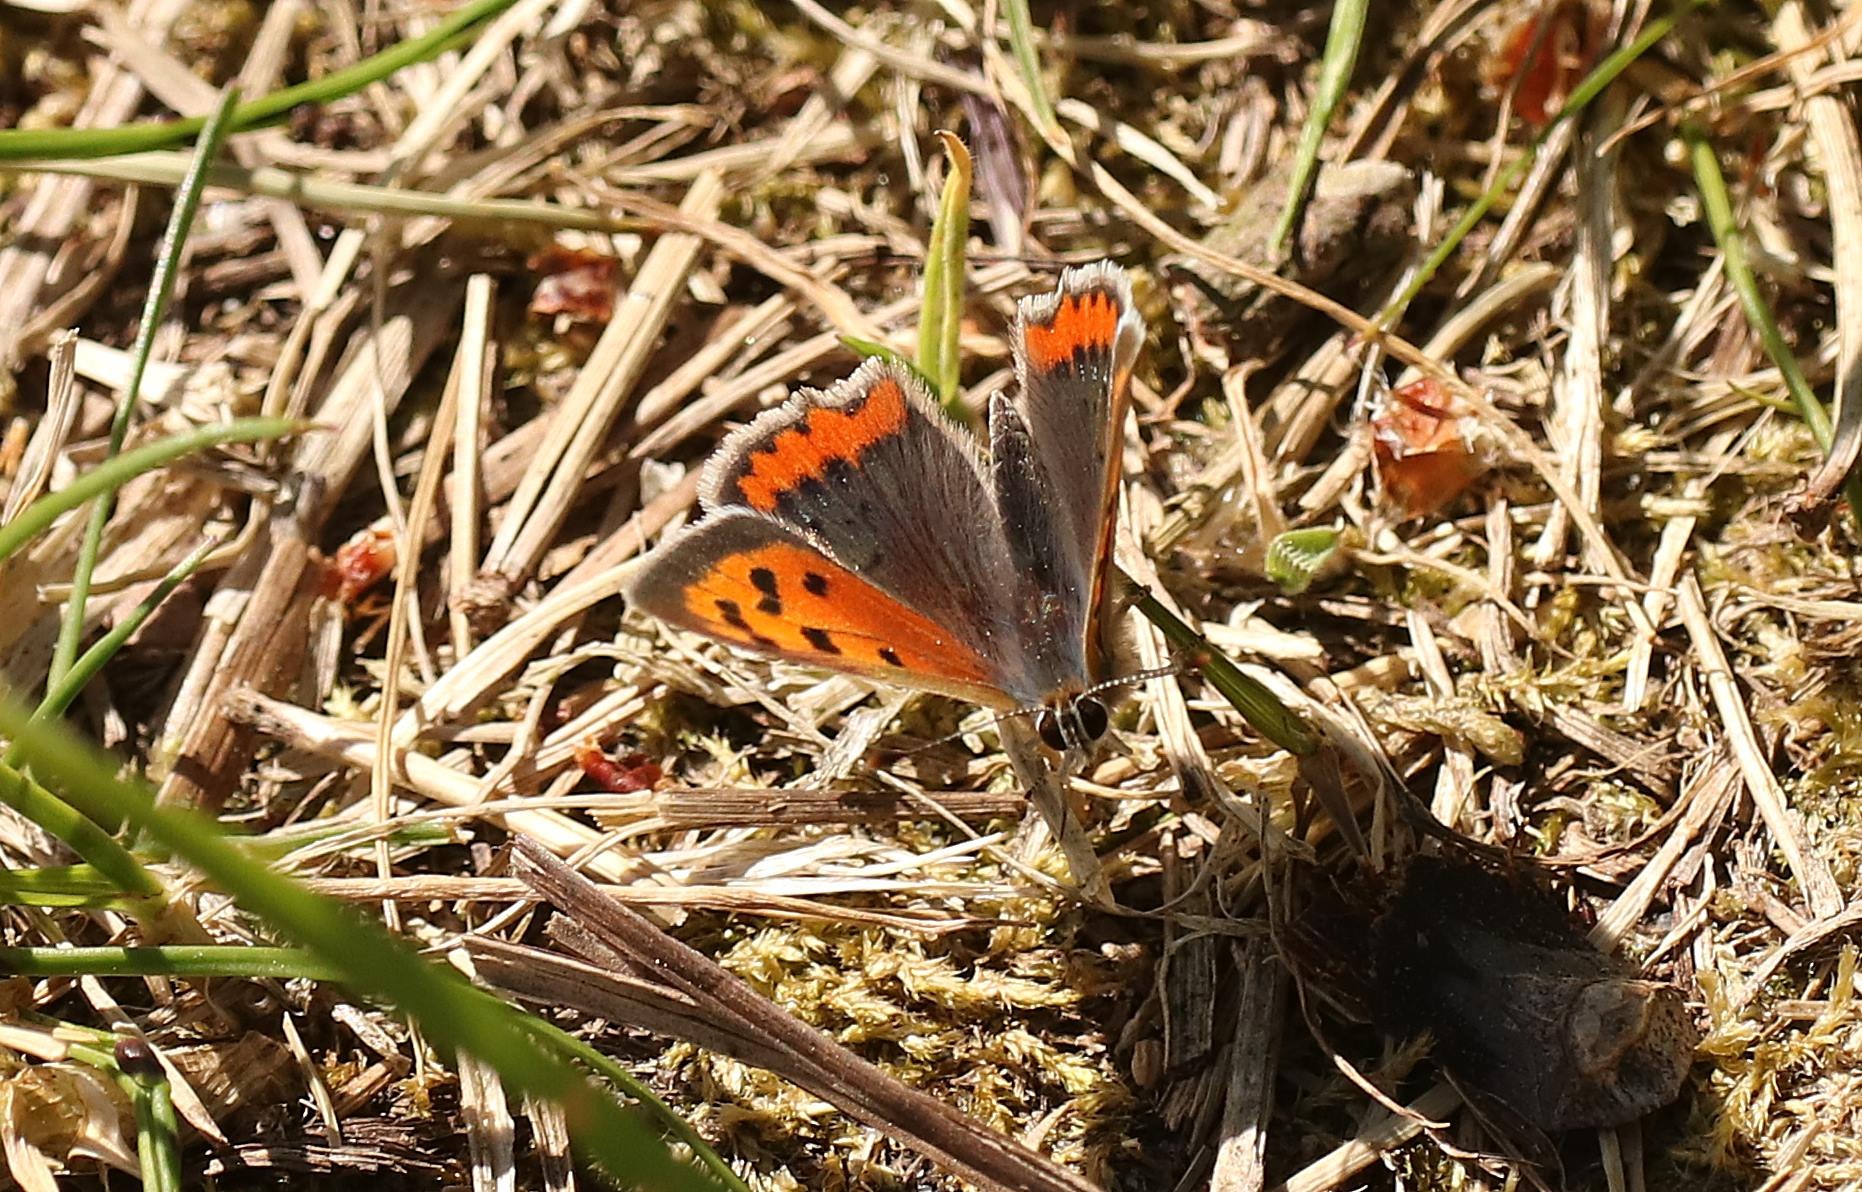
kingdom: Animalia
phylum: Arthropoda
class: Insecta
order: Lepidoptera
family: Lycaenidae
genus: Lycaena
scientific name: Lycaena phlaeas
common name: Lille ildfugl
